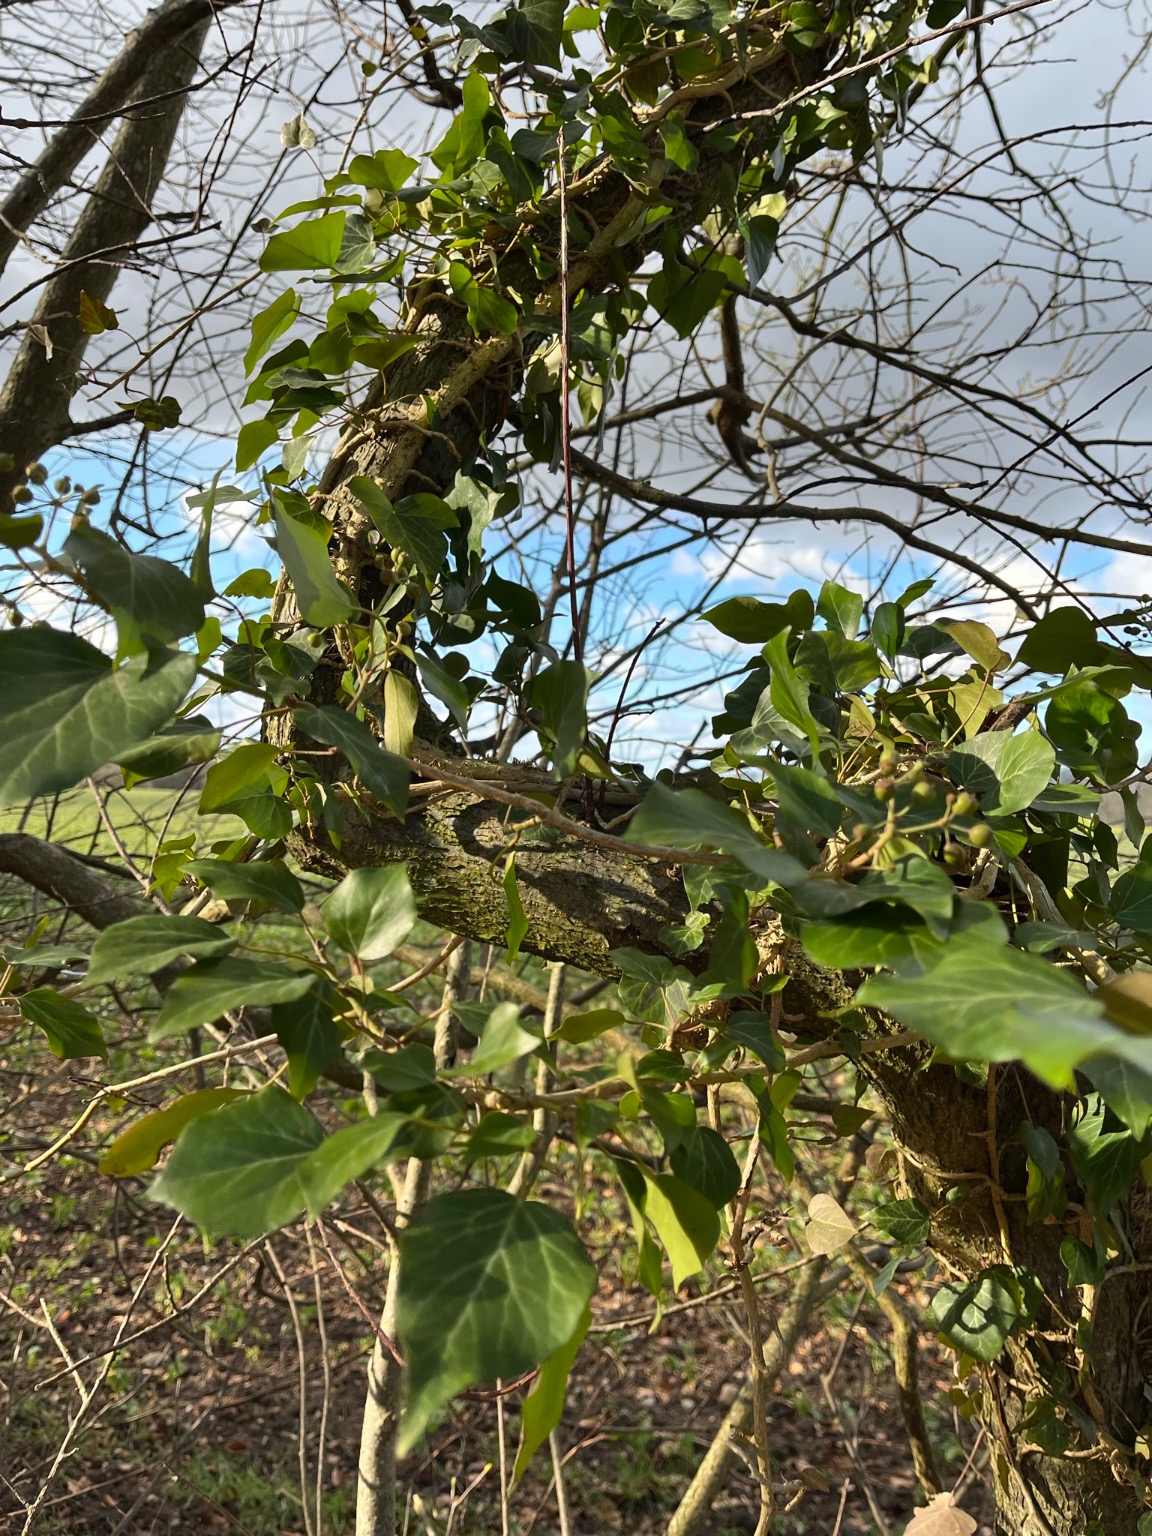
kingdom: Plantae
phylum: Tracheophyta
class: Magnoliopsida
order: Apiales
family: Araliaceae
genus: Hedera
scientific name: Hedera helix
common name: Vedbend
